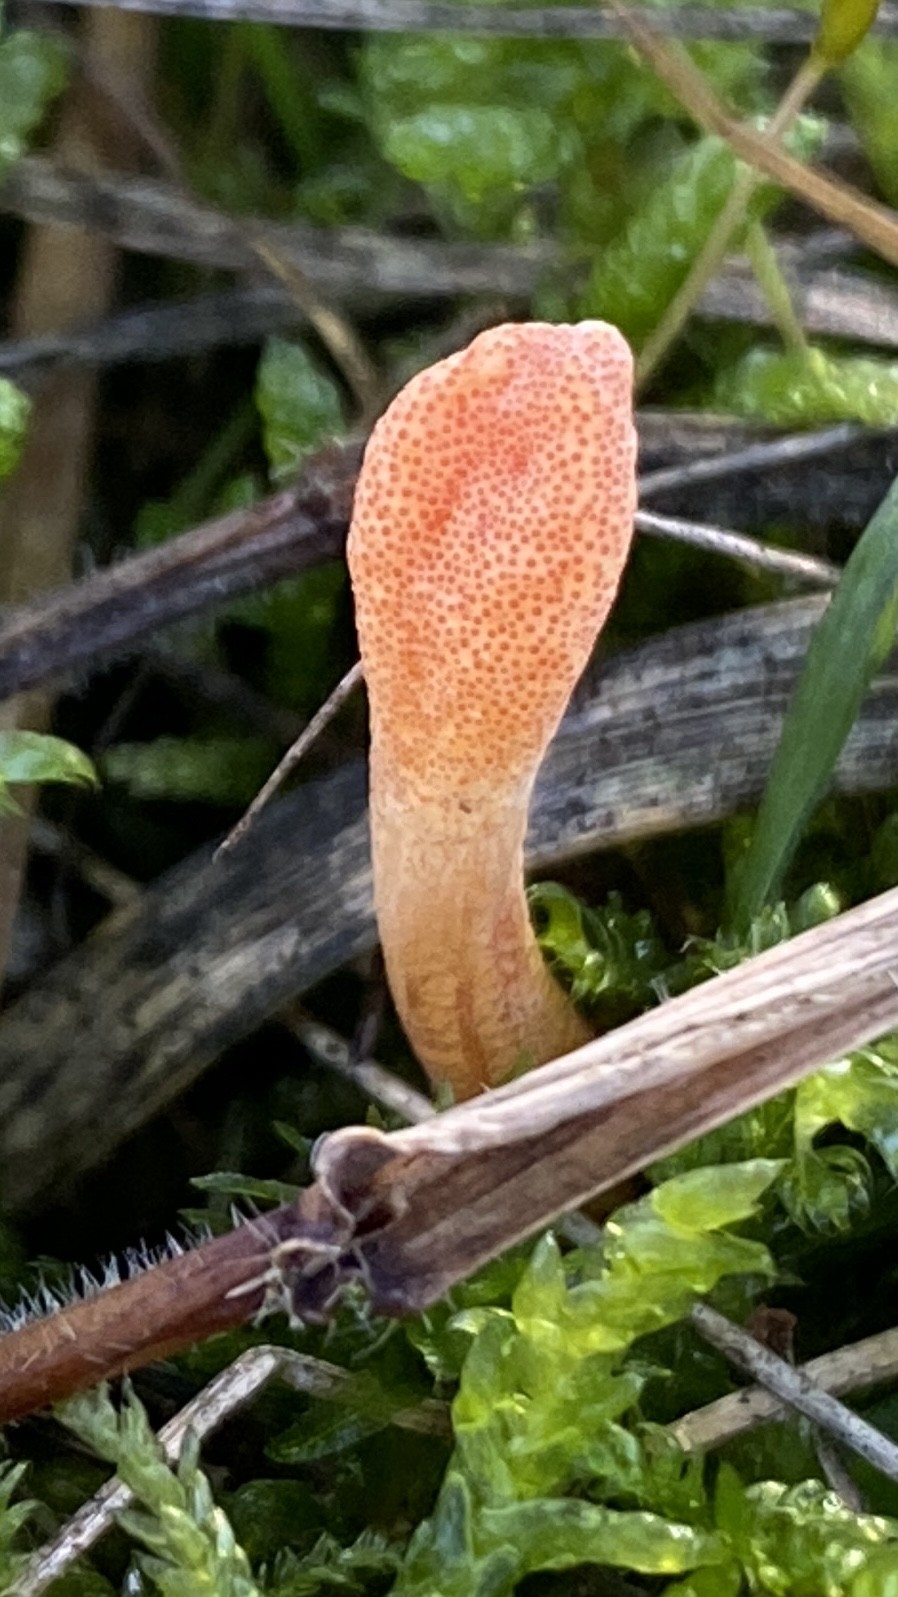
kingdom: Fungi
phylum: Ascomycota
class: Sordariomycetes
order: Hypocreales
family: Cordycipitaceae
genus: Cordyceps
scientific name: Cordyceps militaris
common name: puppe-snyltekølle
